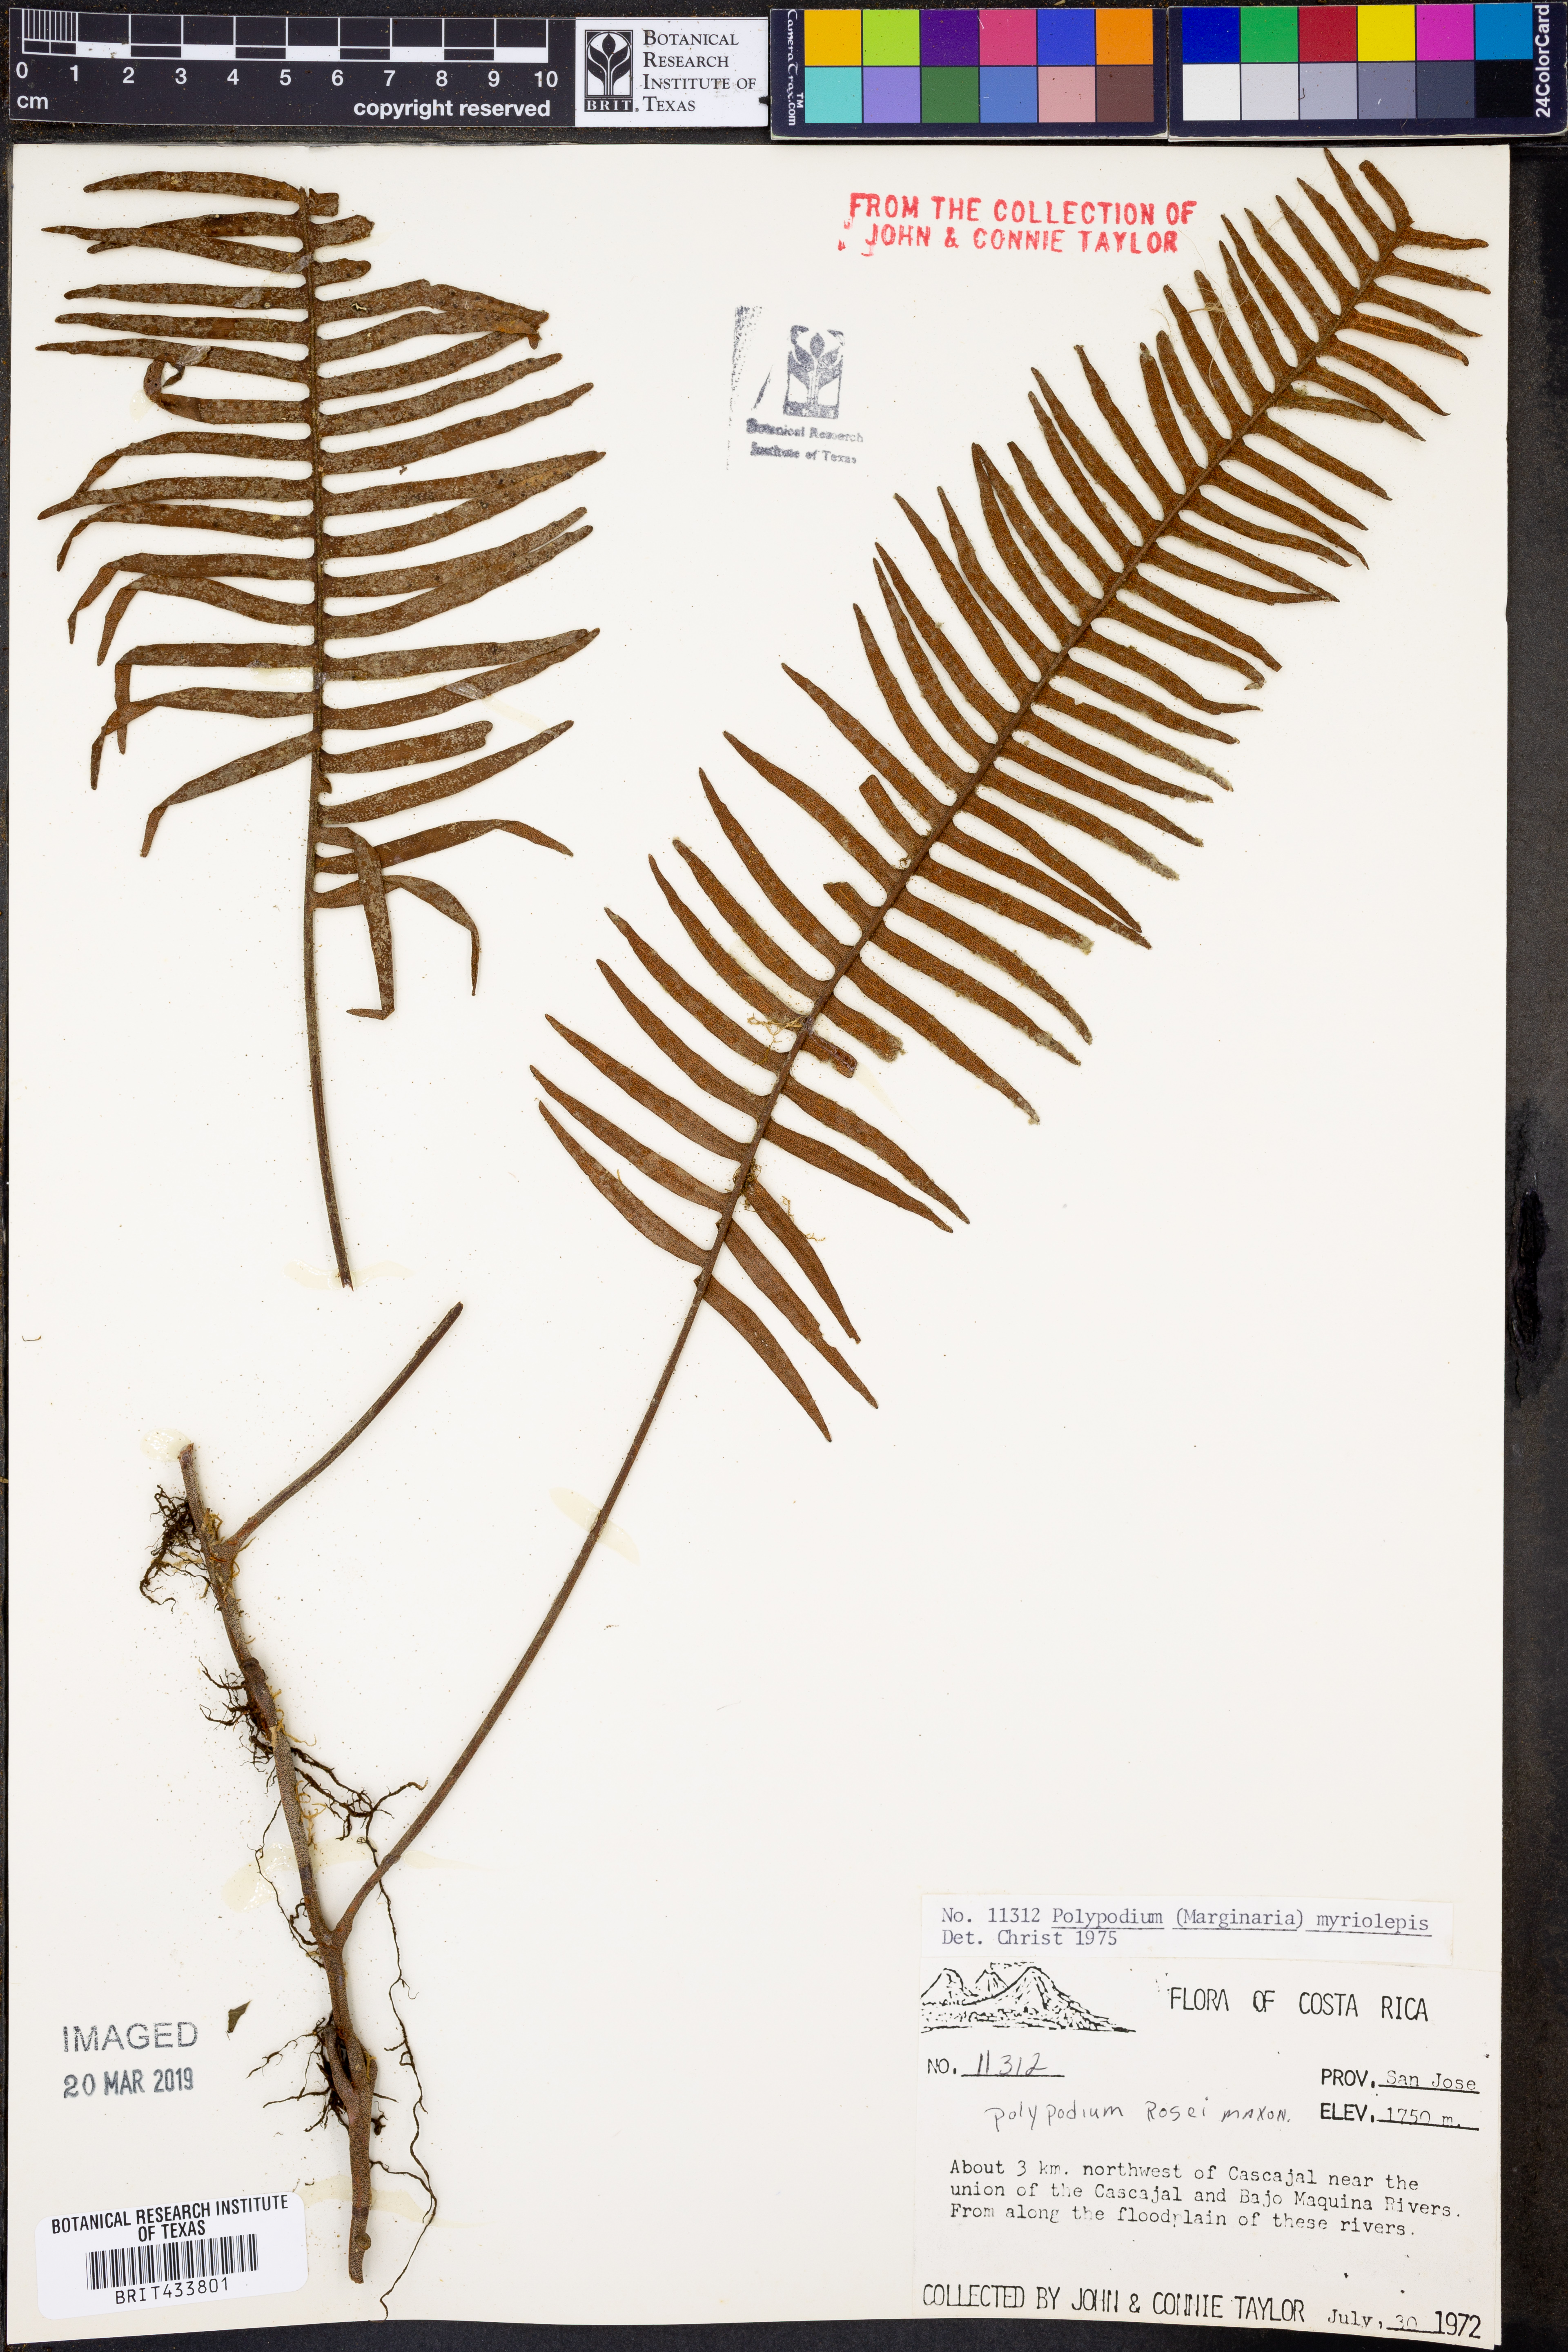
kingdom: Plantae
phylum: Tracheophyta
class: Polypodiopsida
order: Polypodiales
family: Polypodiaceae
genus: Pleopeltis
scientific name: Pleopeltis myriolepis
